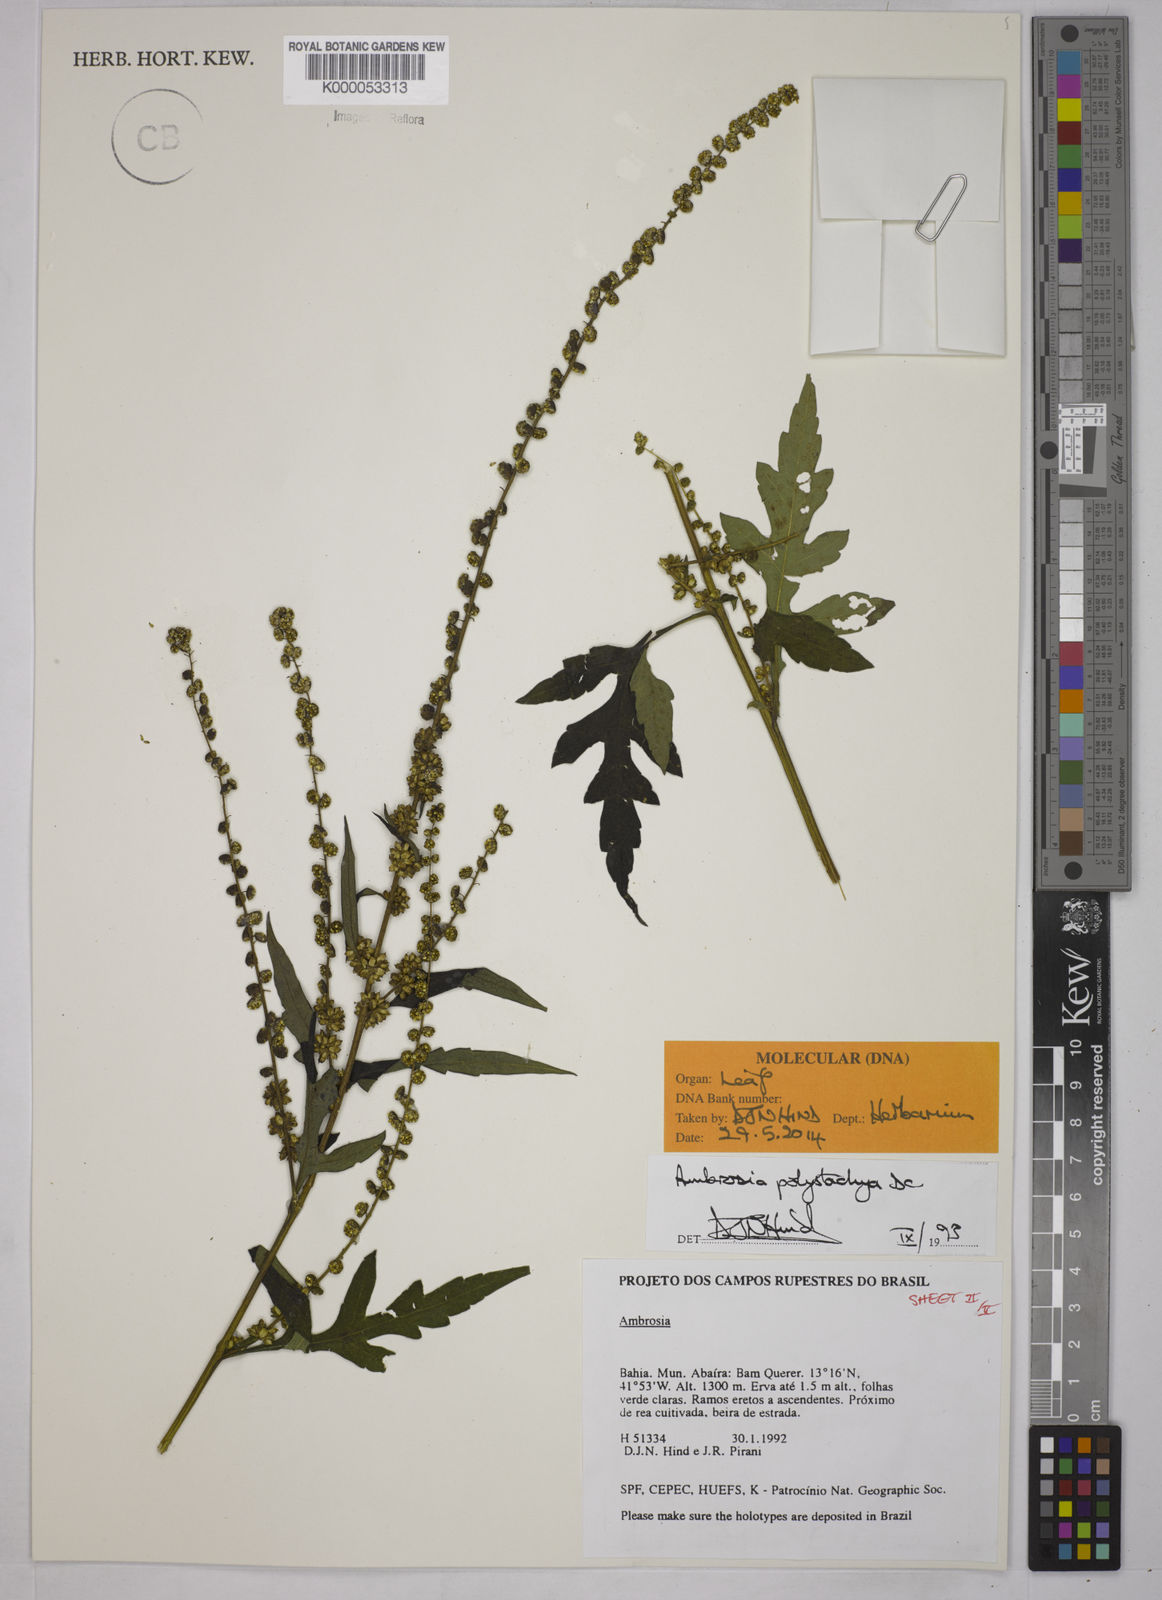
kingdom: Plantae
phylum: Tracheophyta
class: Magnoliopsida
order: Asterales
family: Asteraceae
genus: Ambrosia
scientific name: Ambrosia polystachya
